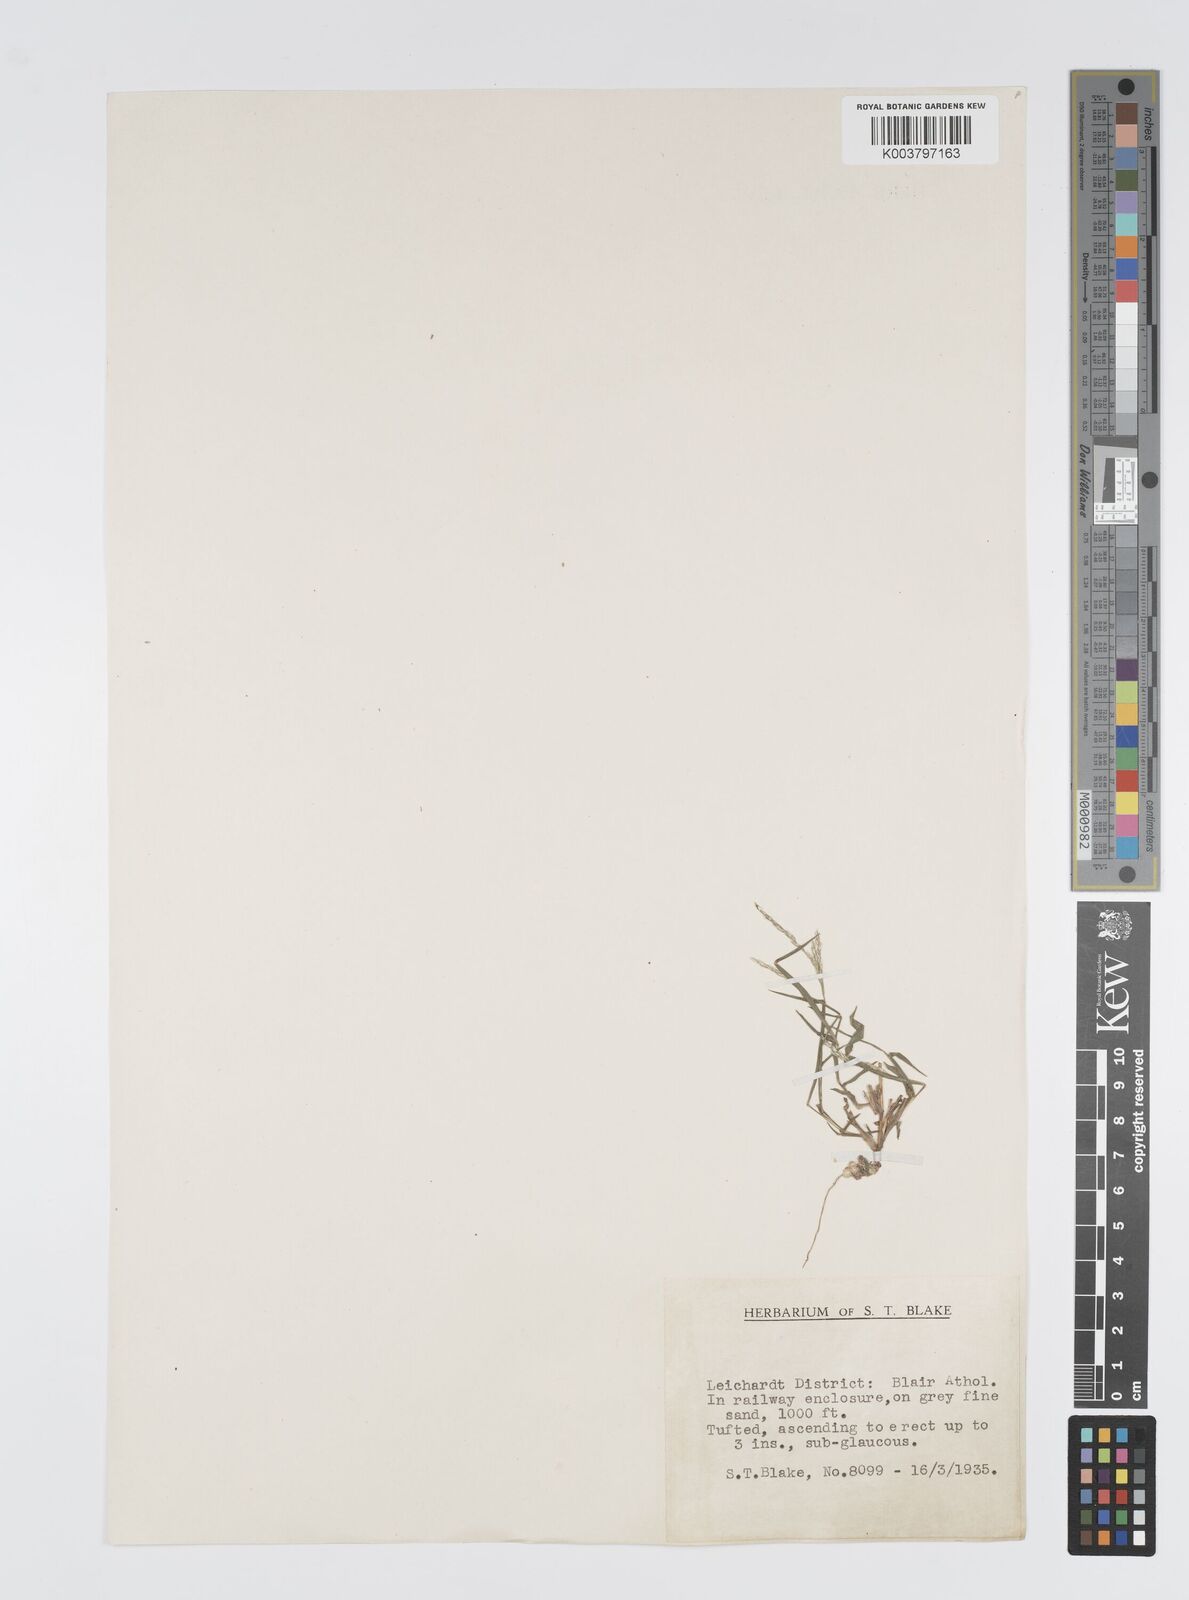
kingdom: Plantae
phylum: Tracheophyta
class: Liliopsida
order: Poales
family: Poaceae
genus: Digitaria
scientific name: Digitaria spec
